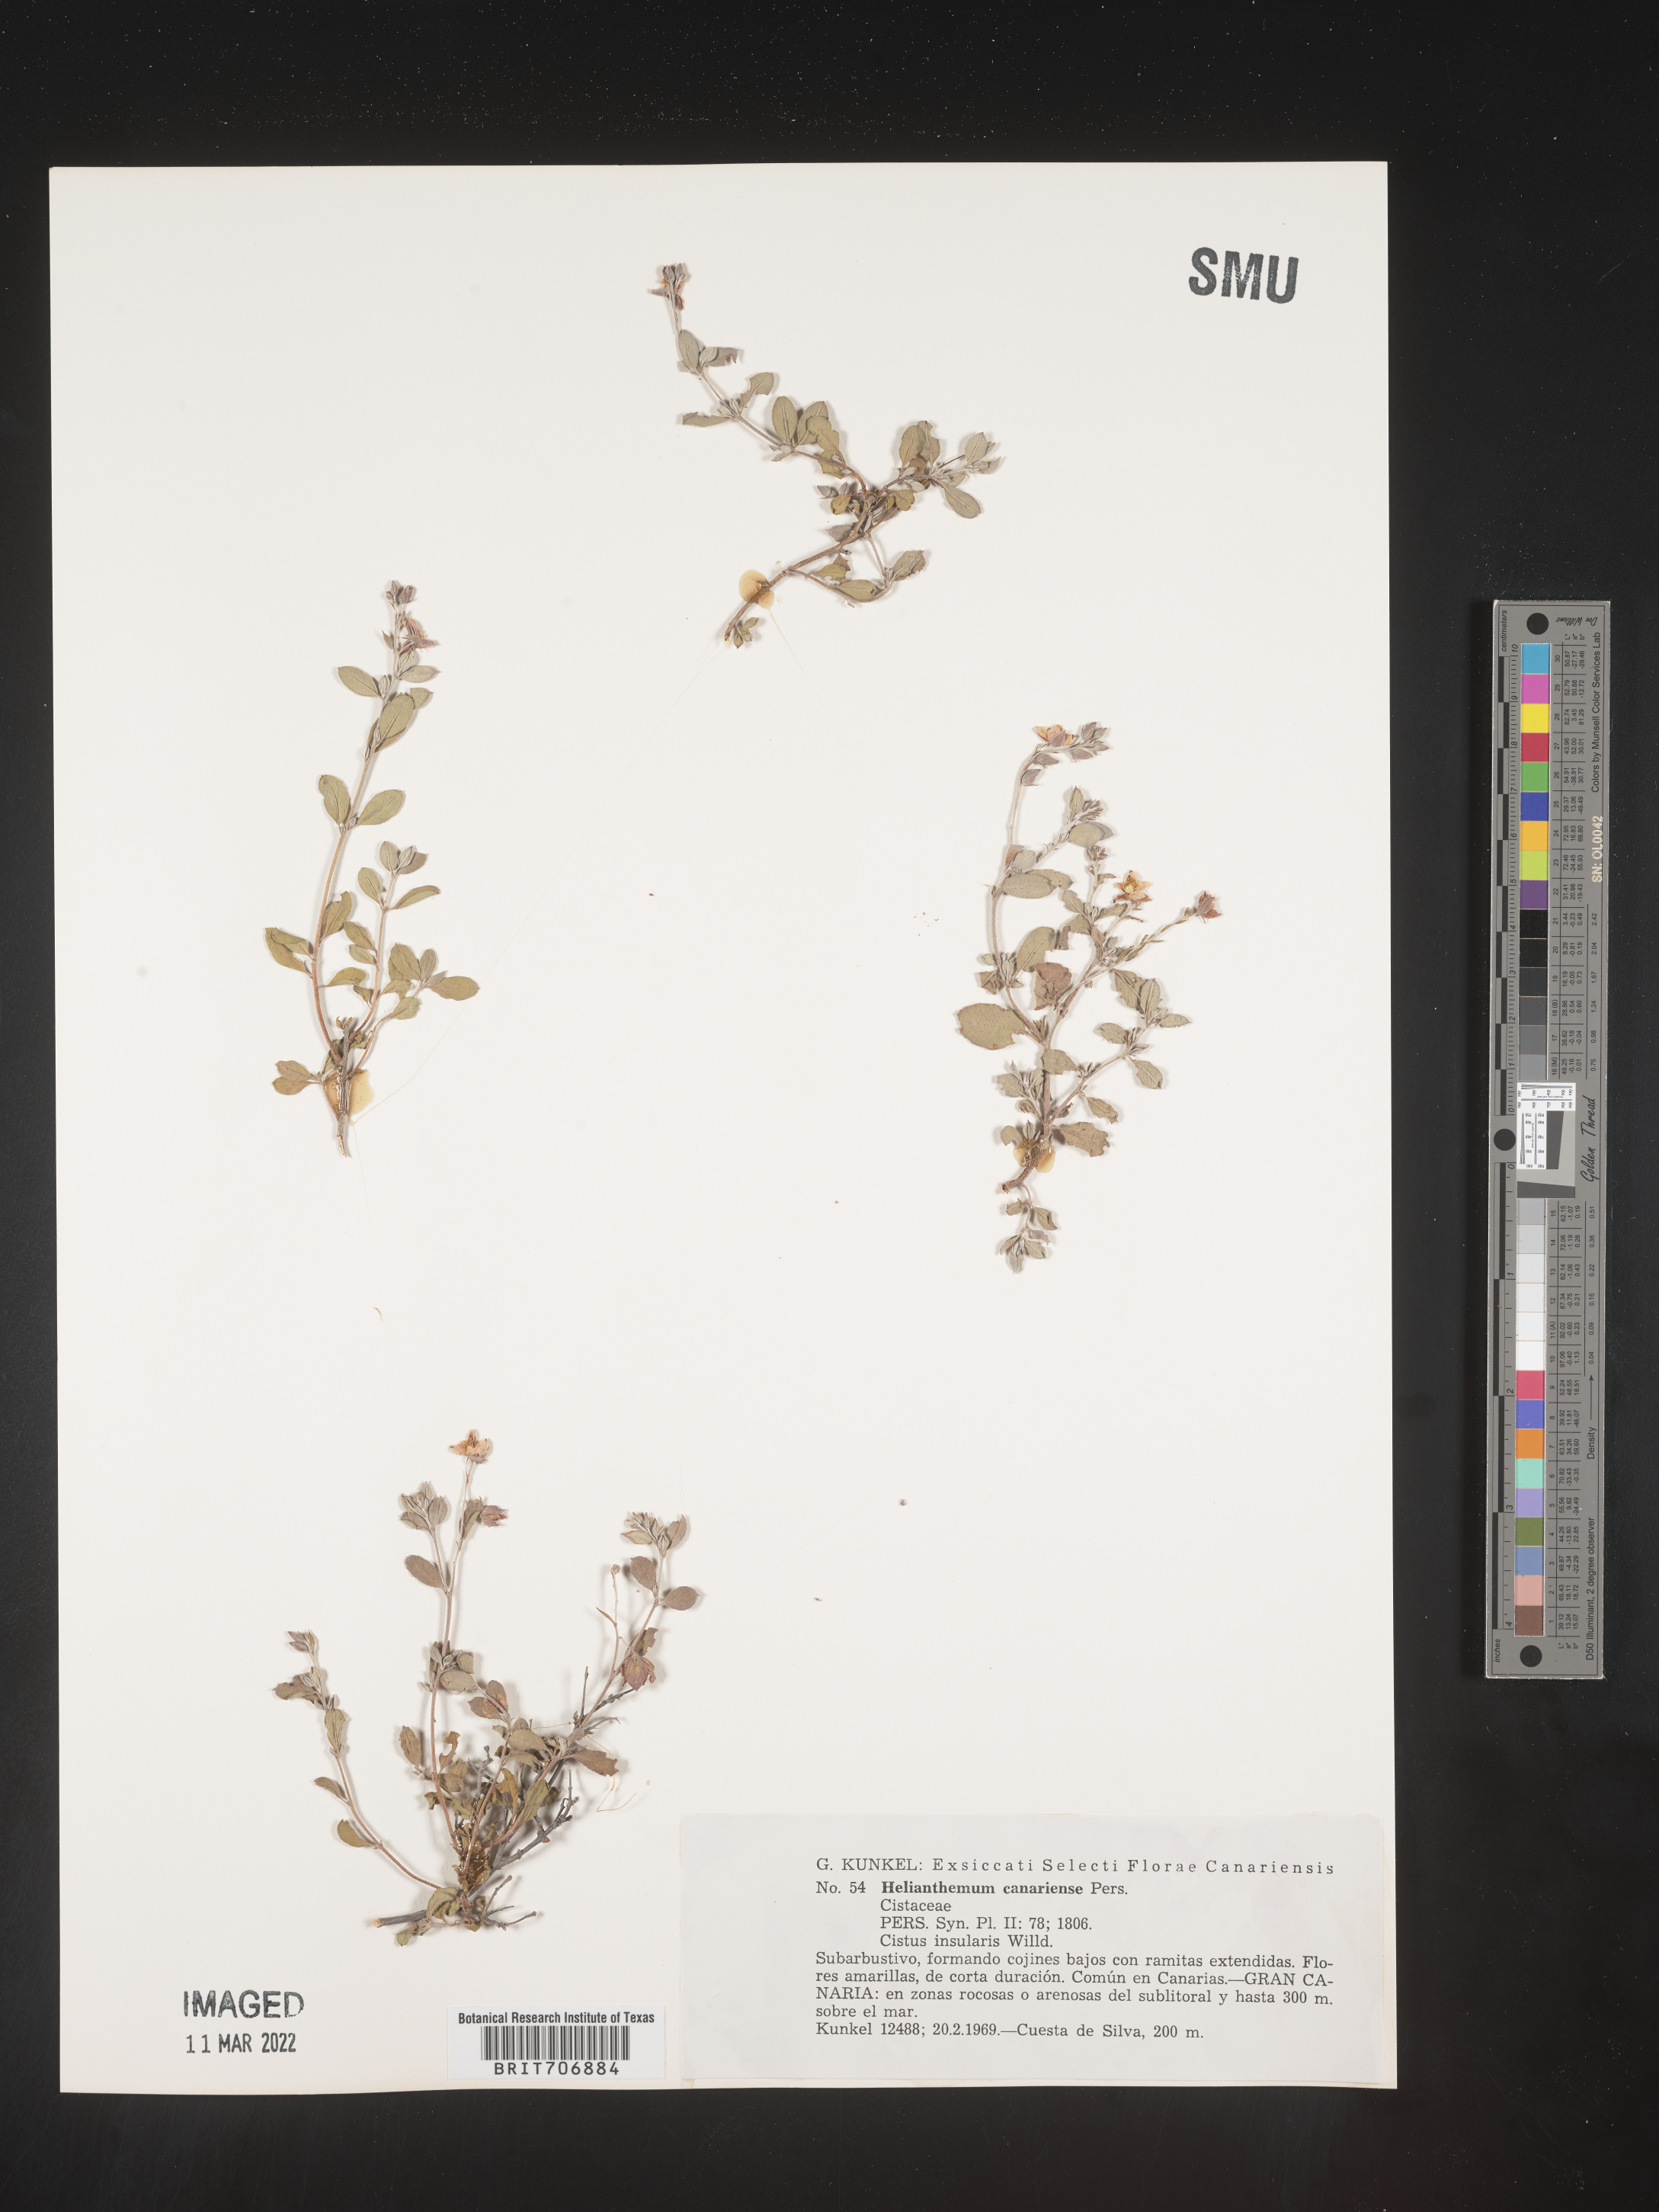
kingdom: Plantae
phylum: Tracheophyta
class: Magnoliopsida
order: Malvales
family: Cistaceae
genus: Helianthemum
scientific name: Helianthemum
